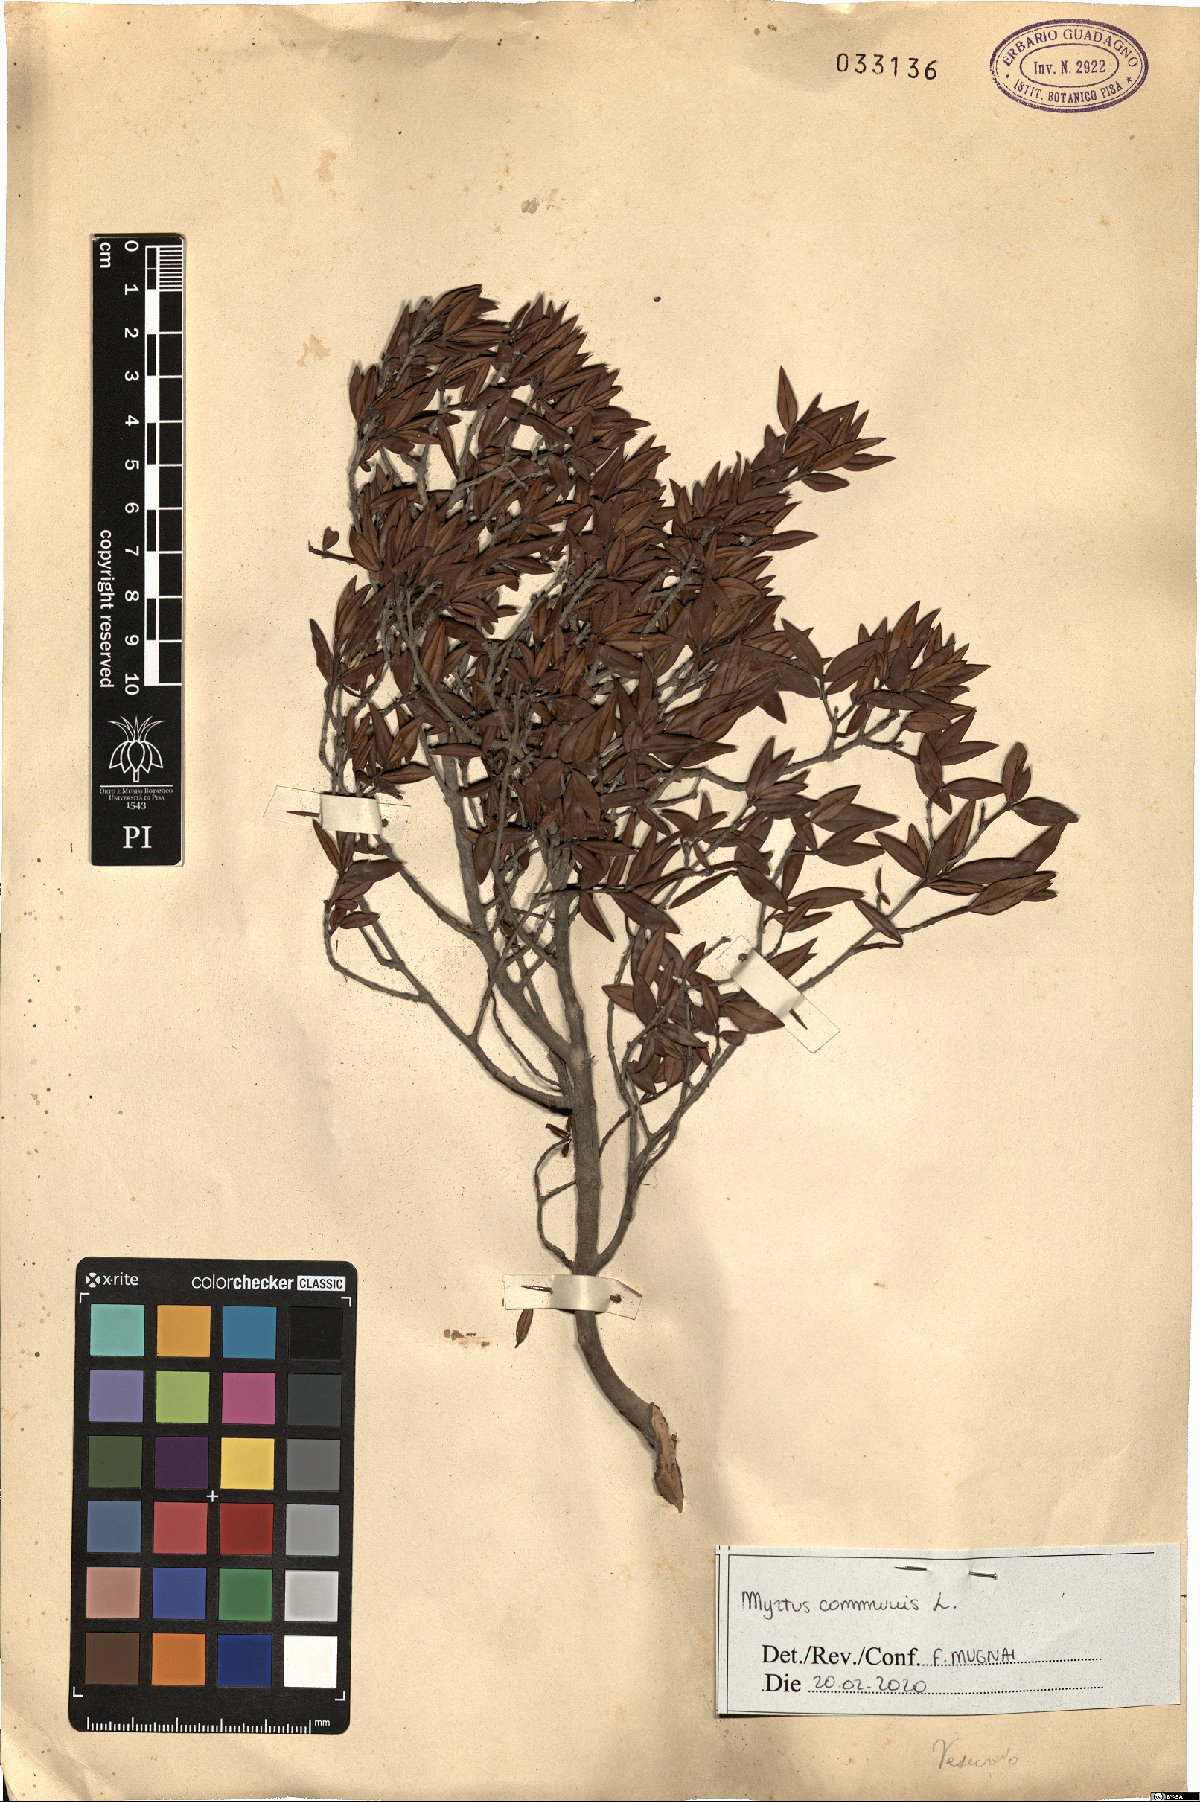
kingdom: Plantae
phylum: Tracheophyta
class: Magnoliopsida
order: Myrtales
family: Myrtaceae
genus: Myrtus
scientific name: Myrtus communis
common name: Myrtle
